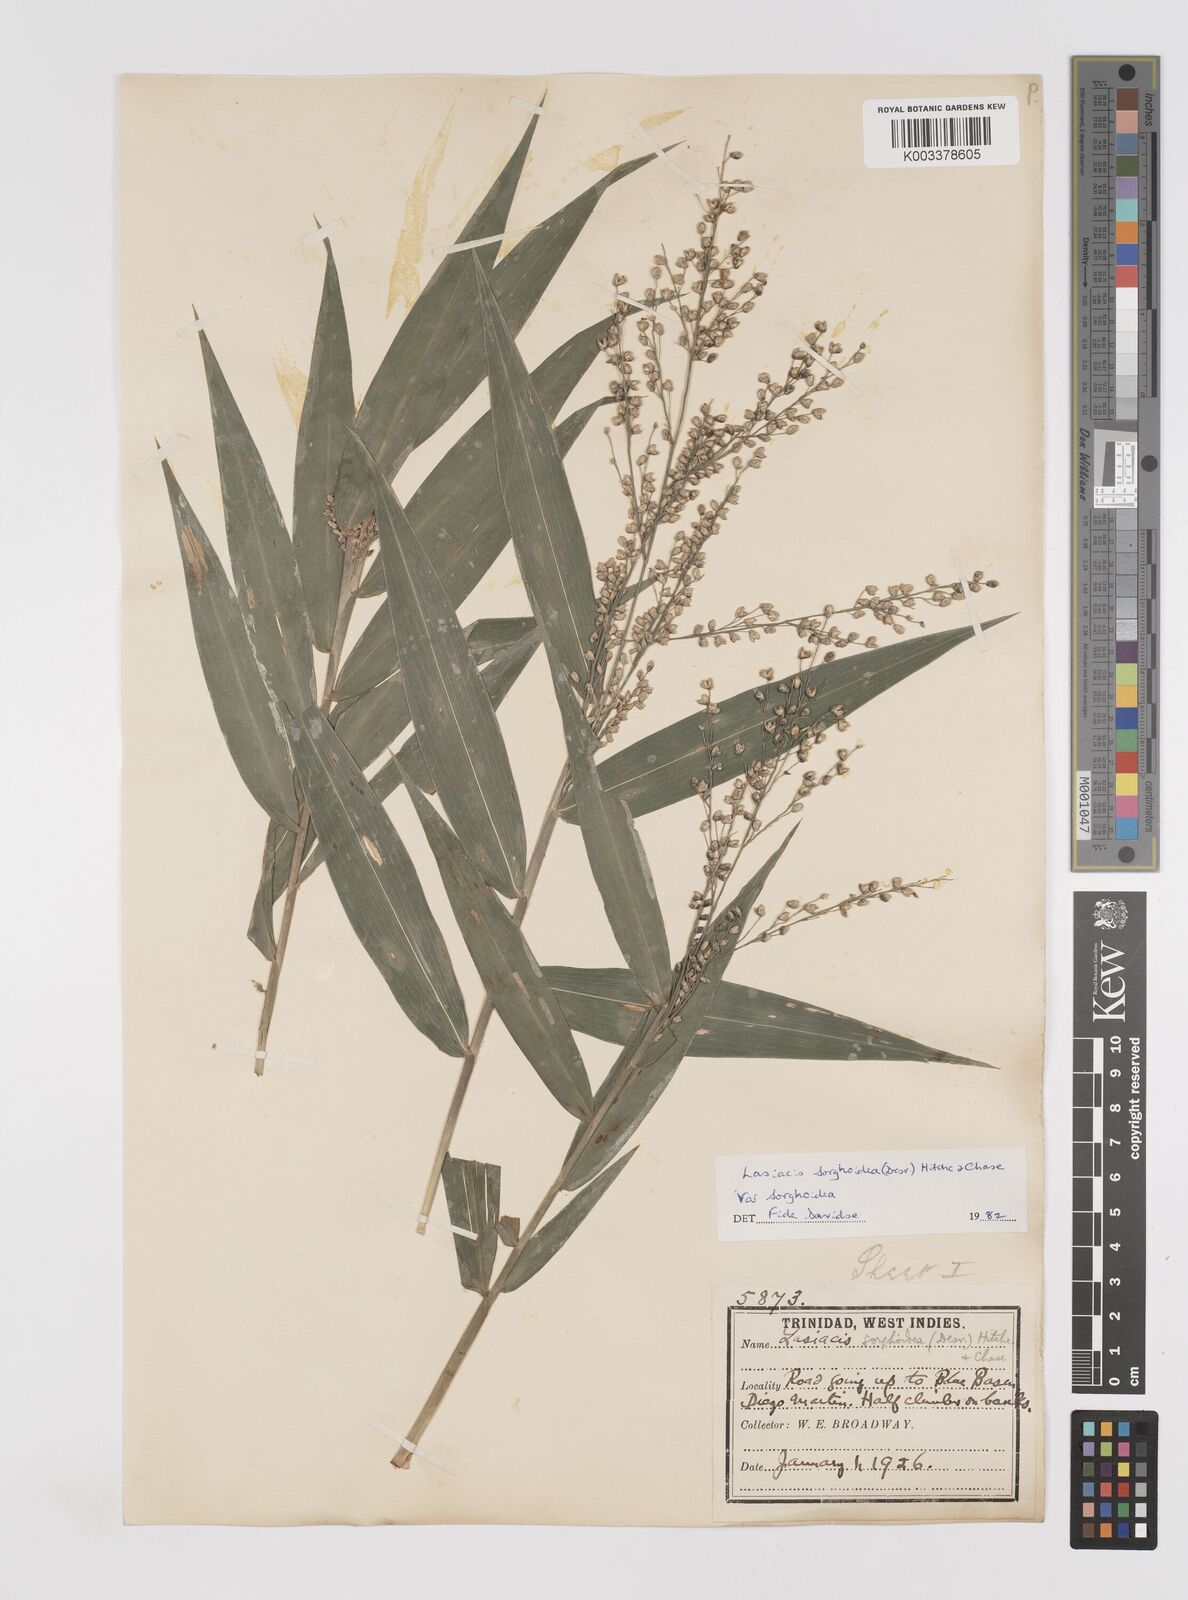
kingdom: Plantae
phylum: Tracheophyta
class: Liliopsida
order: Poales
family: Poaceae
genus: Lasiacis
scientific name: Lasiacis maculata
